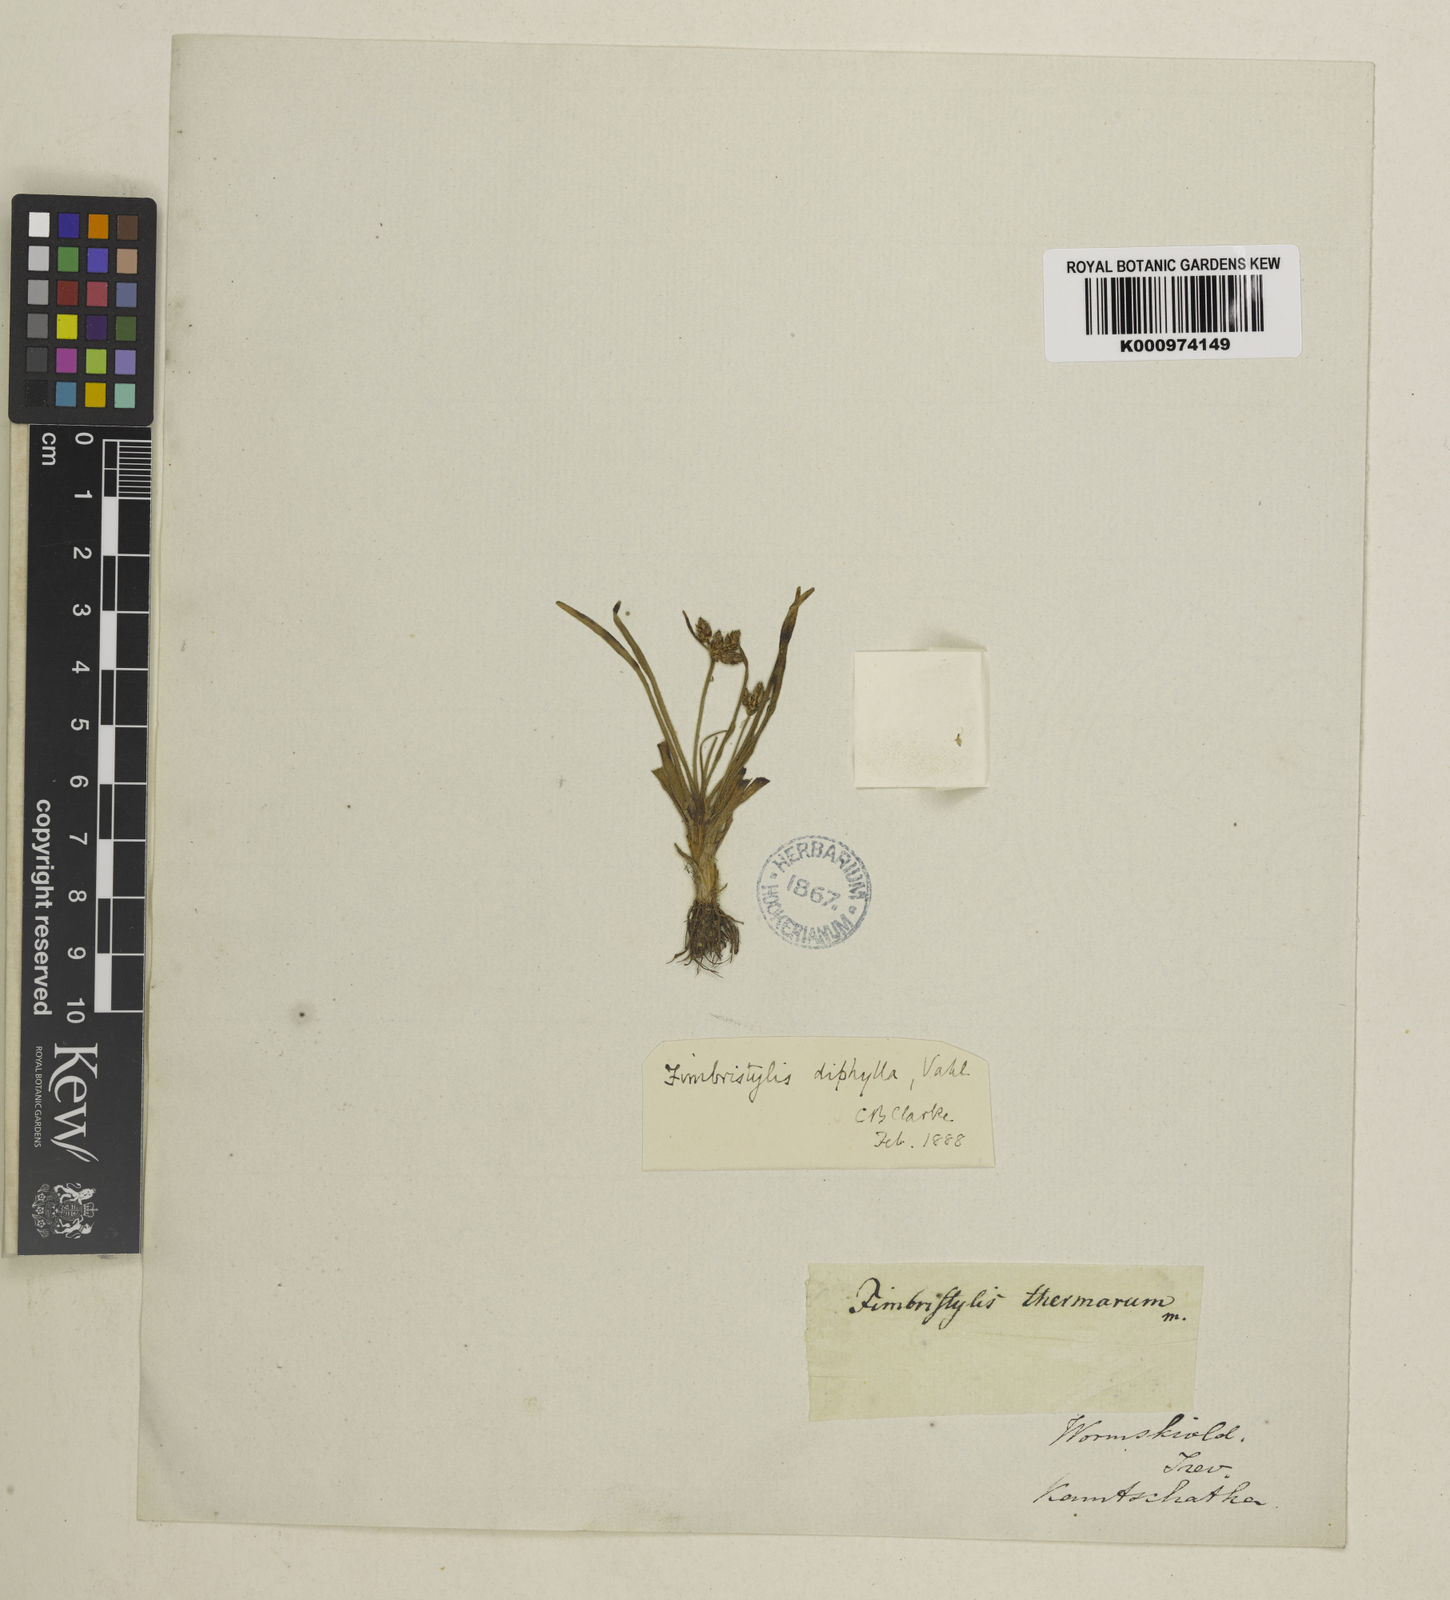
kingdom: Plantae
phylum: Tracheophyta
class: Liliopsida
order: Poales
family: Cyperaceae
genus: Fimbristylis
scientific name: Fimbristylis dichotoma
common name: Forked fimbry
